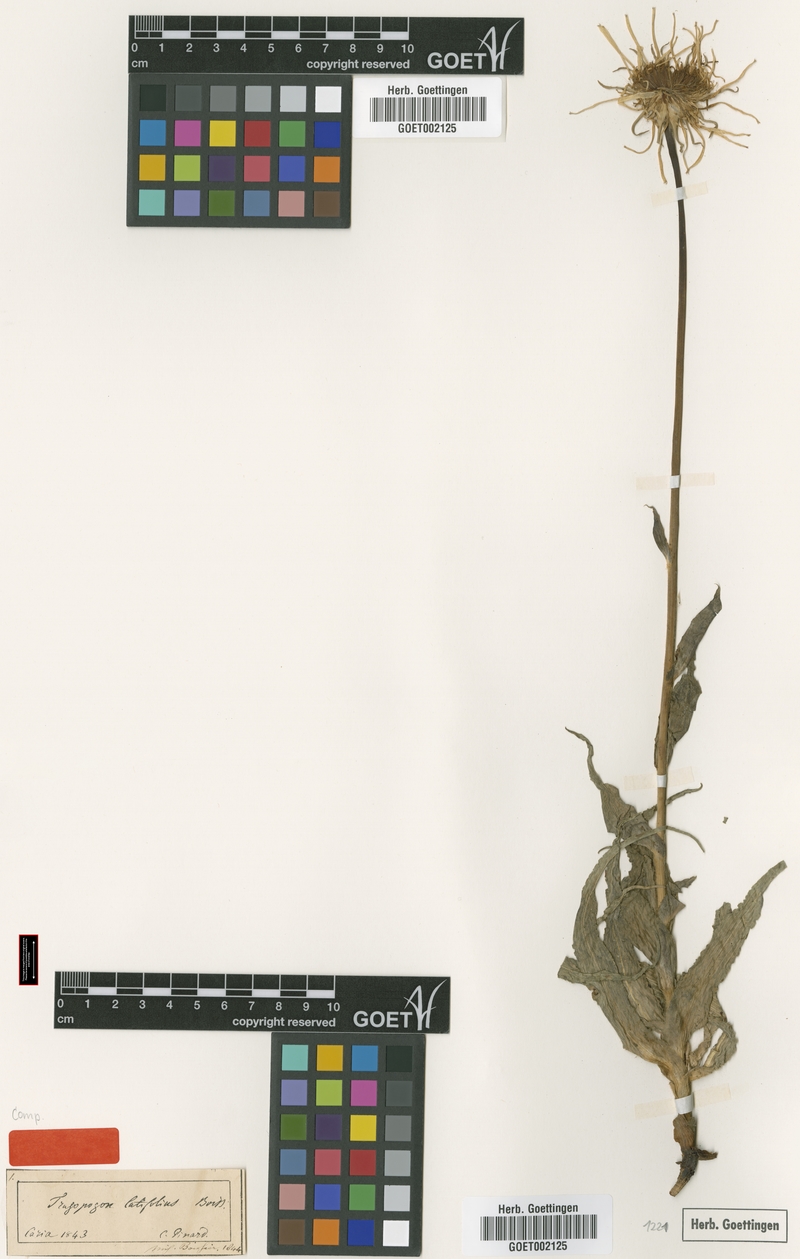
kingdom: Plantae
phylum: Tracheophyta
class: Magnoliopsida
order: Asterales
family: Asteraceae
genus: Tragopogon
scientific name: Tragopogon latifolius
